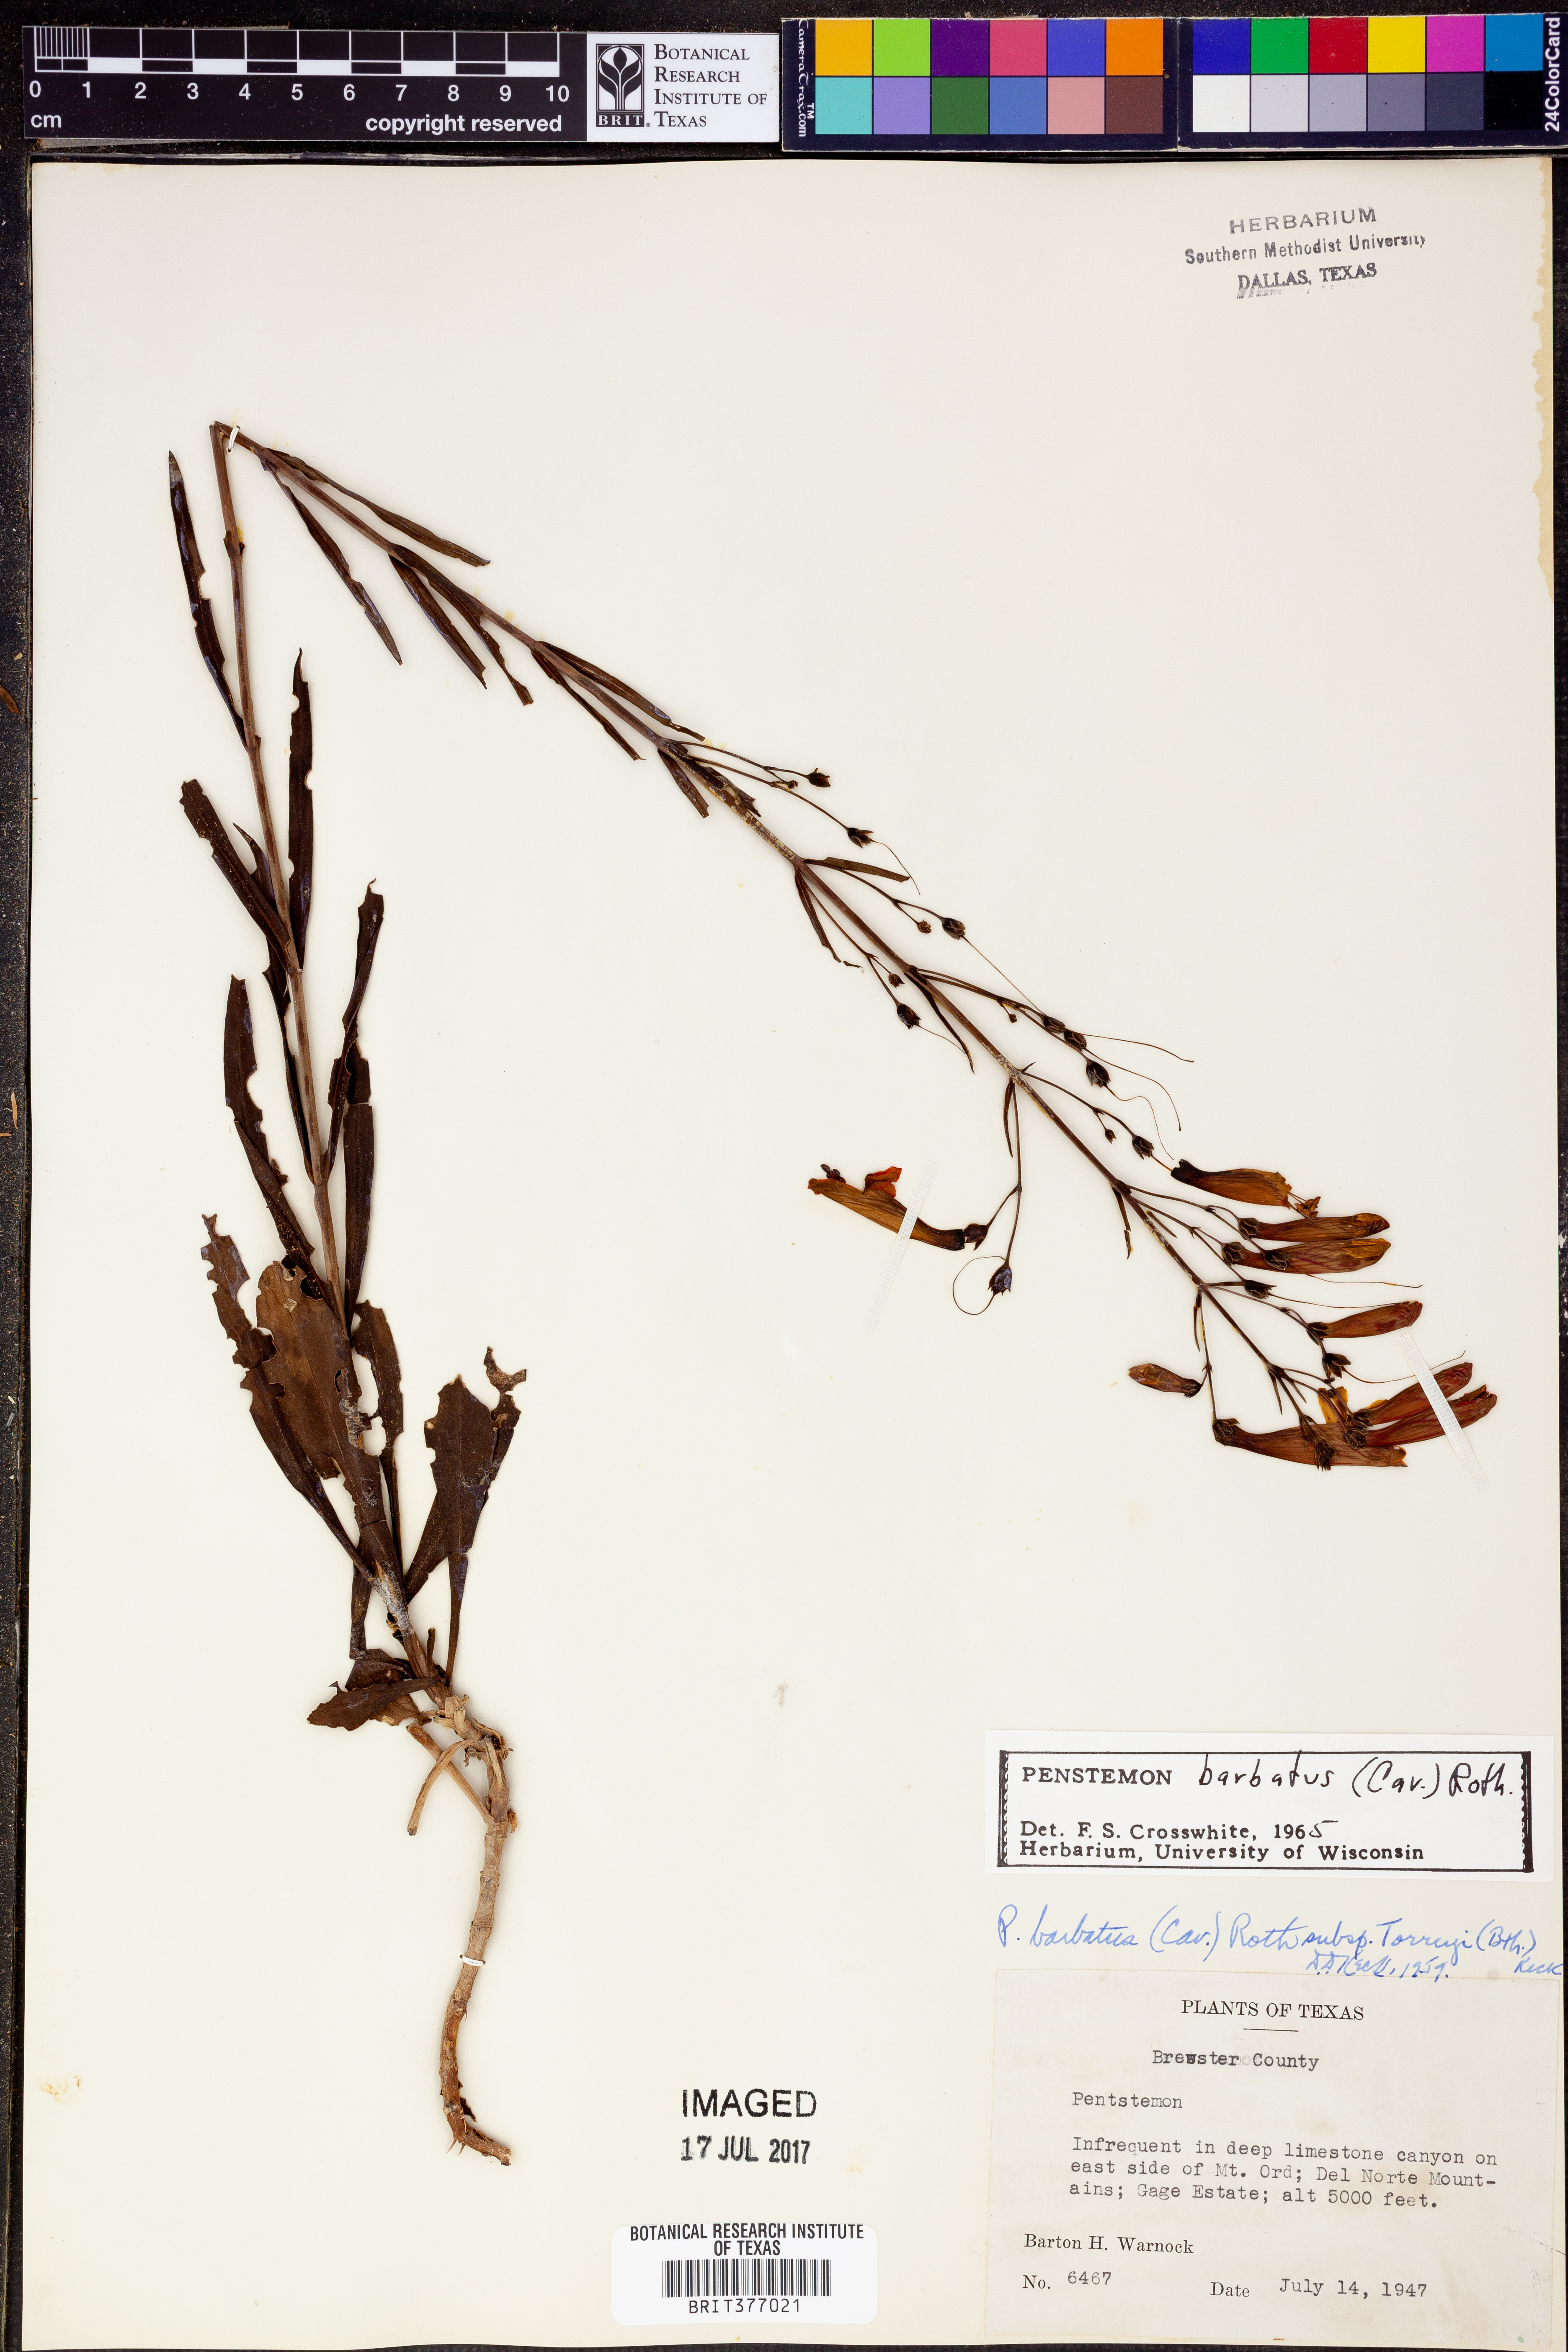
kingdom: Plantae
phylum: Tracheophyta
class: Magnoliopsida
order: Lamiales
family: Plantaginaceae
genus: Penstemon
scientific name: Penstemon barbatus
